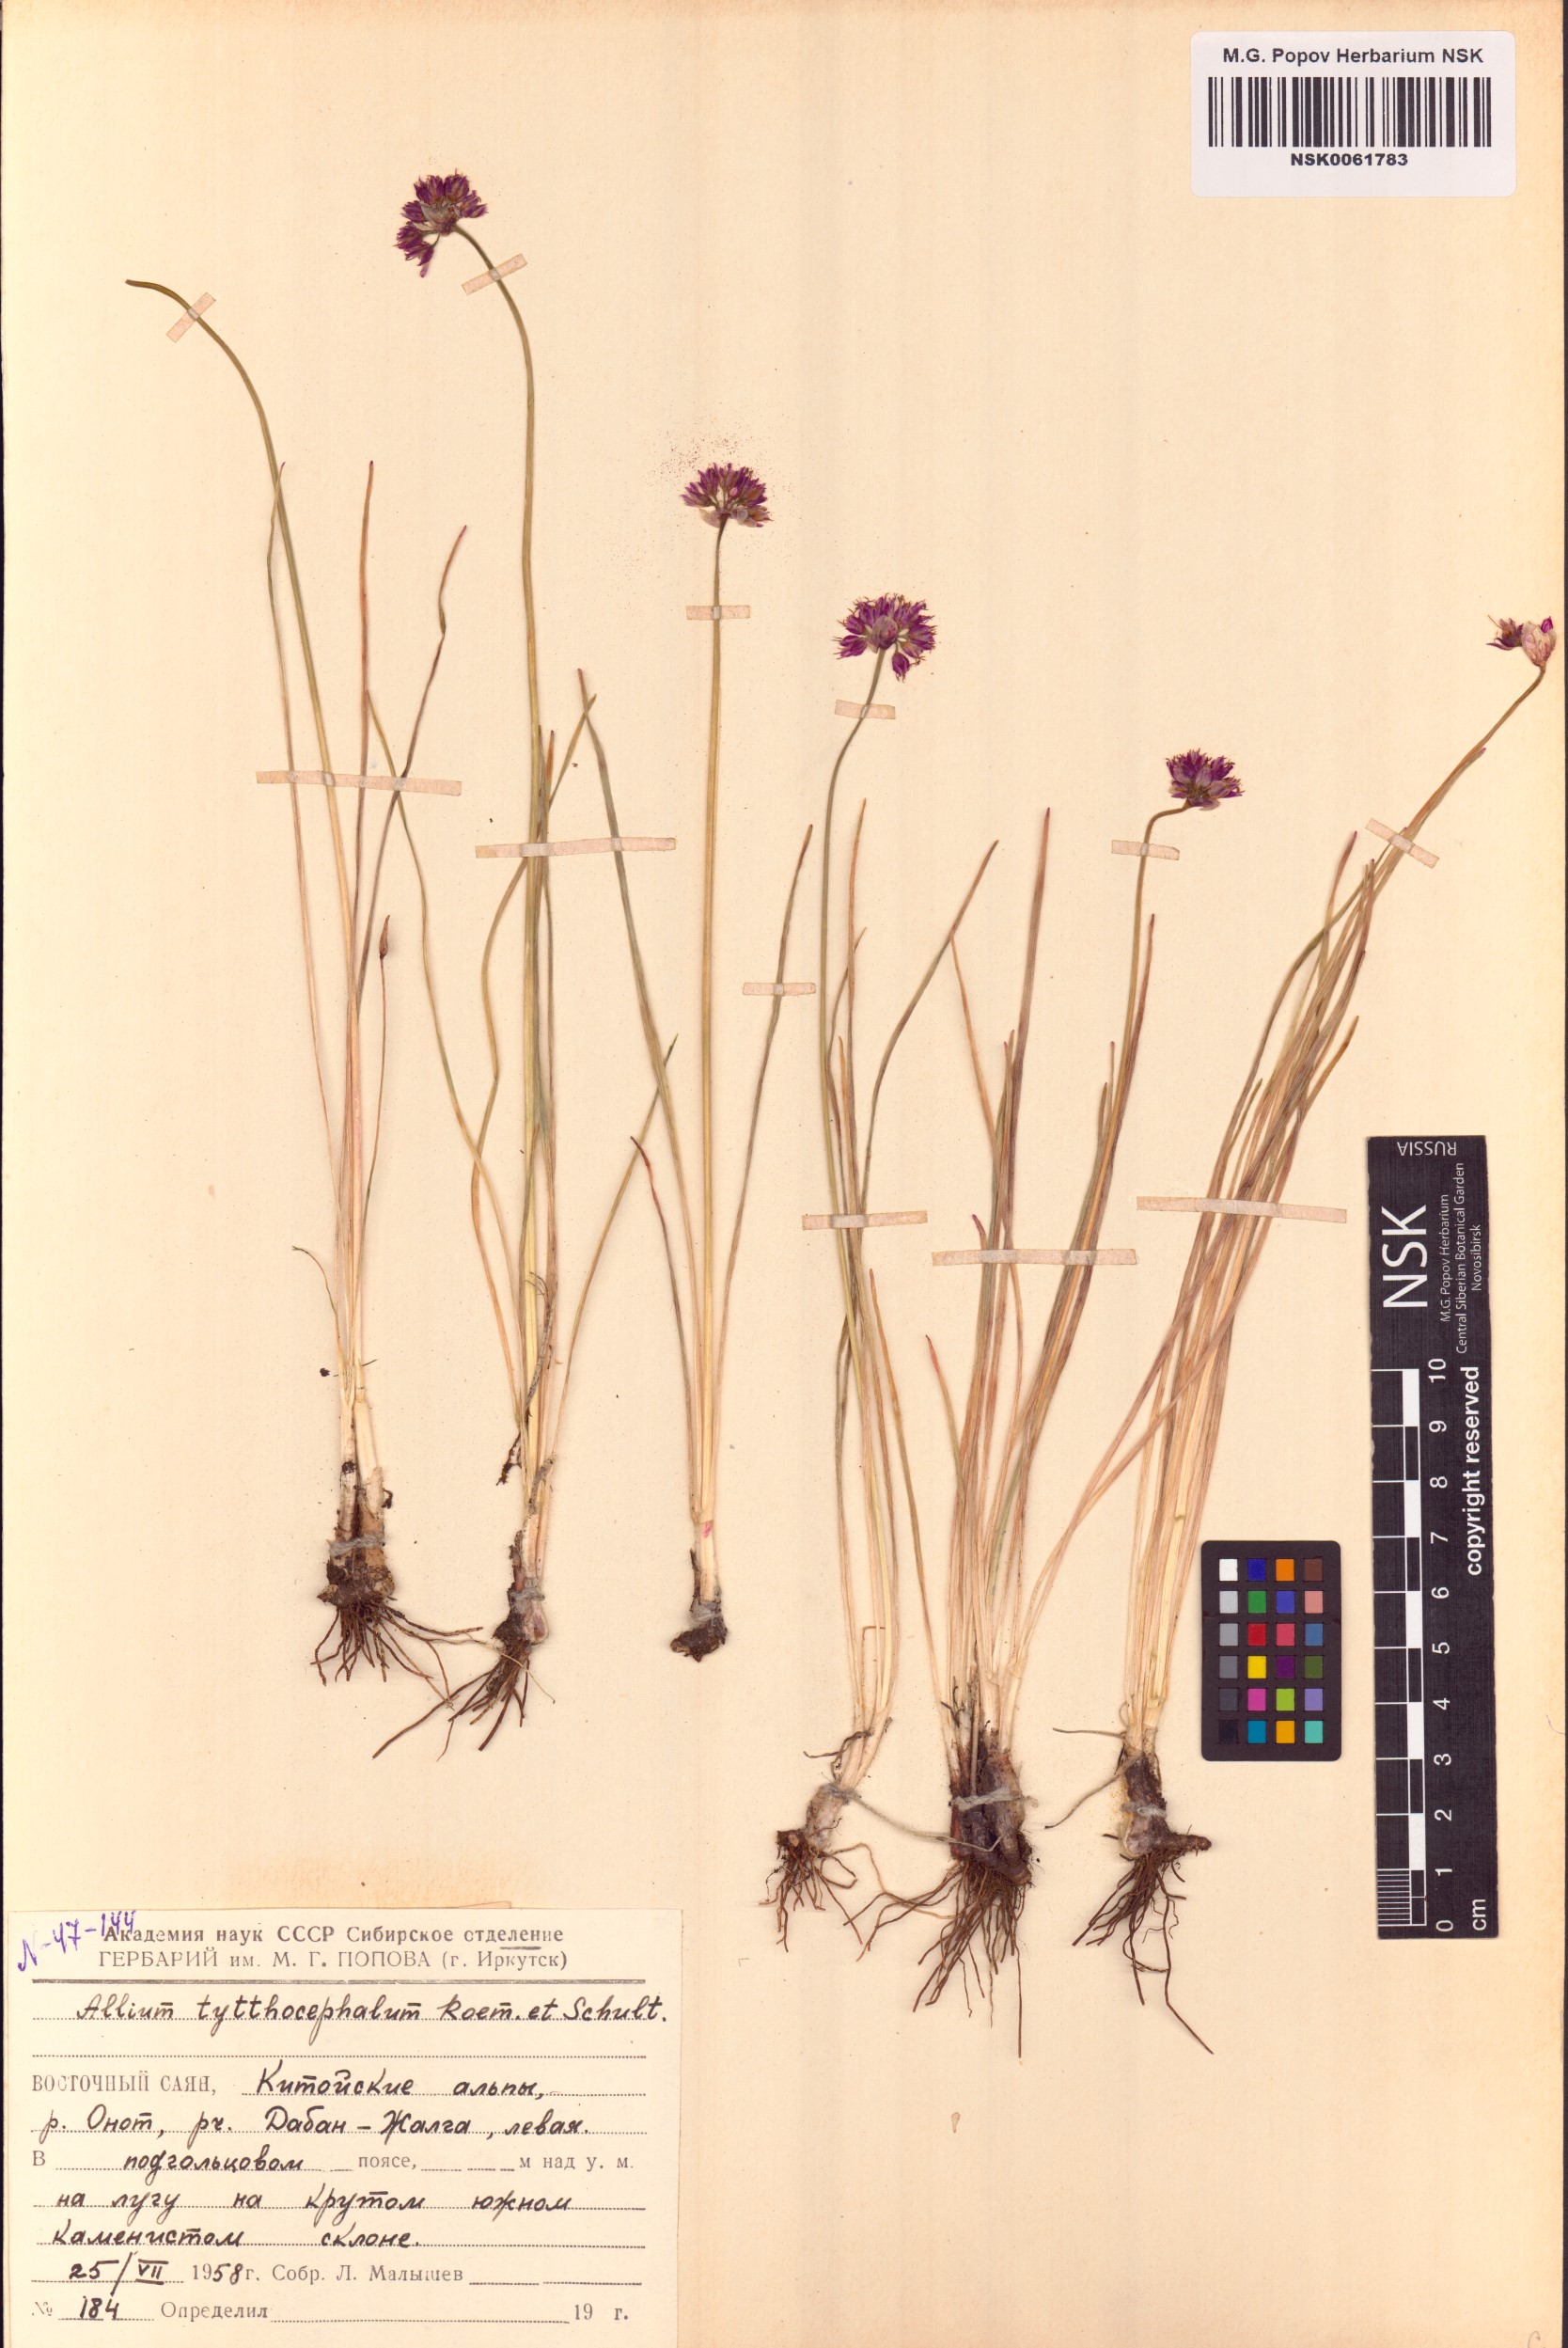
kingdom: Plantae
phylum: Tracheophyta
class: Liliopsida
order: Asparagales
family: Amaryllidaceae
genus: Allium
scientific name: Allium tytthocephalum
